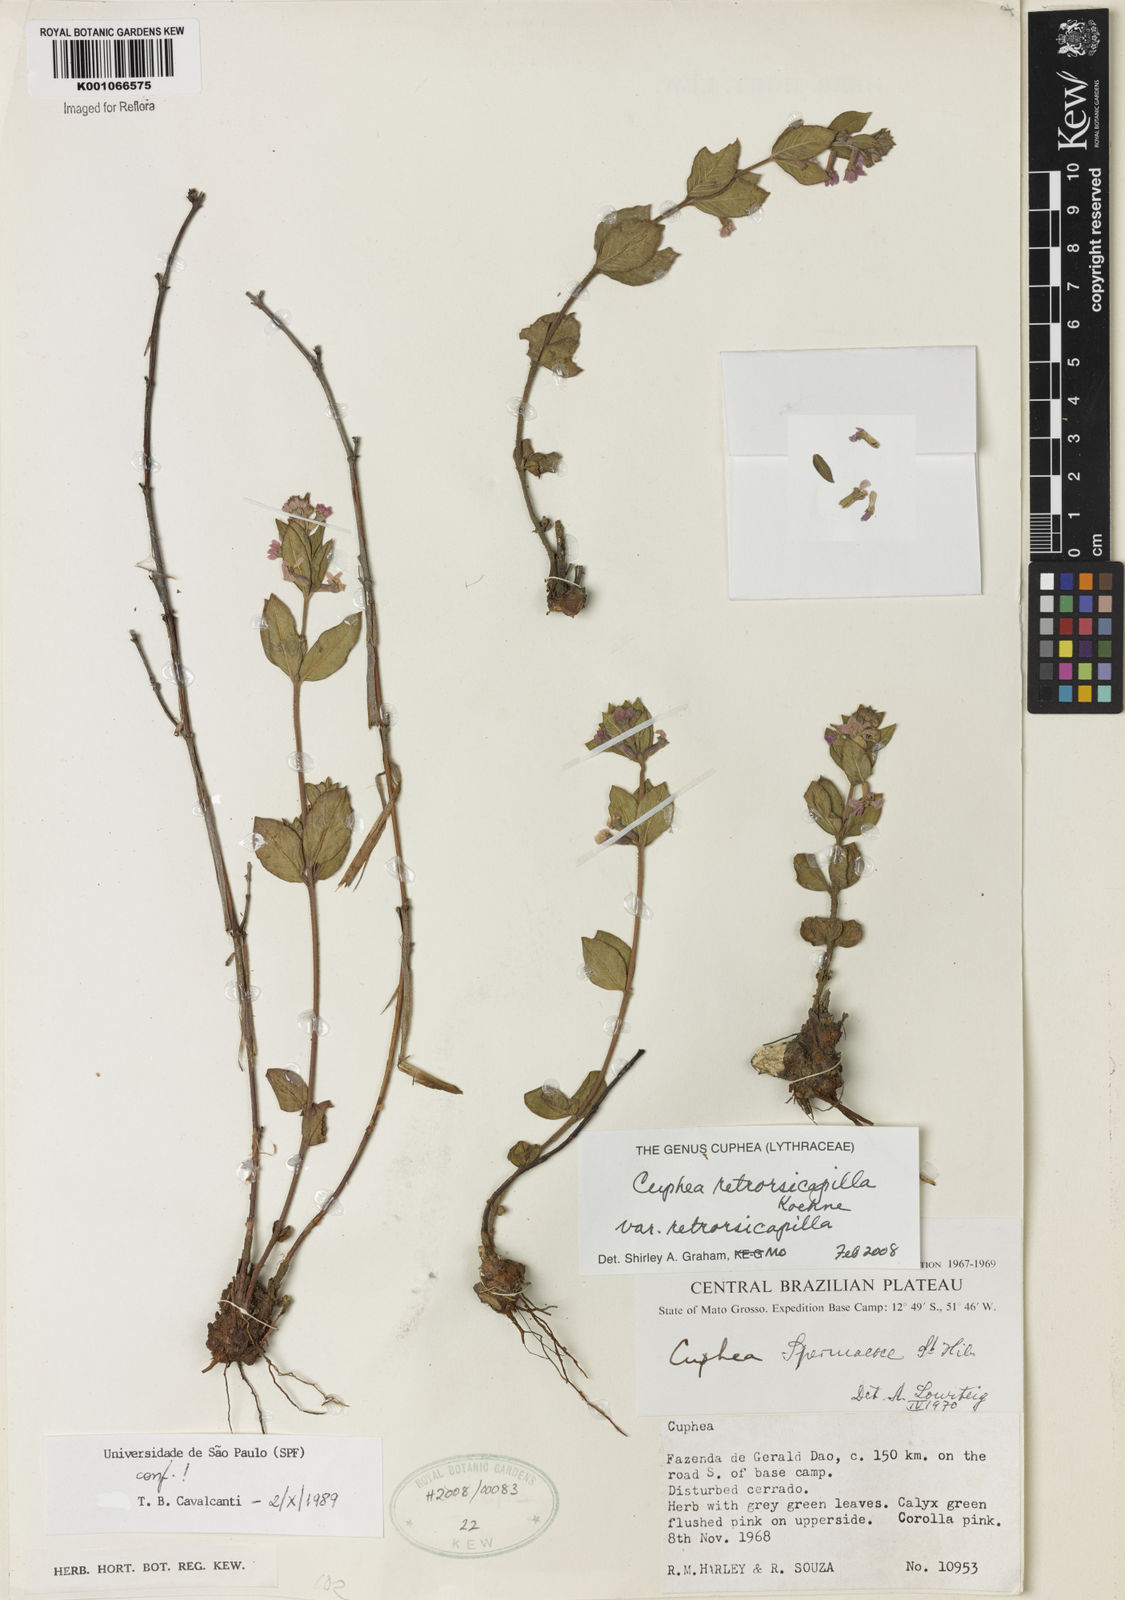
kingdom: Plantae
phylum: Tracheophyta
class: Magnoliopsida
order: Myrtales
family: Lythraceae
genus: Cuphea
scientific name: Cuphea retrorsicapilla
